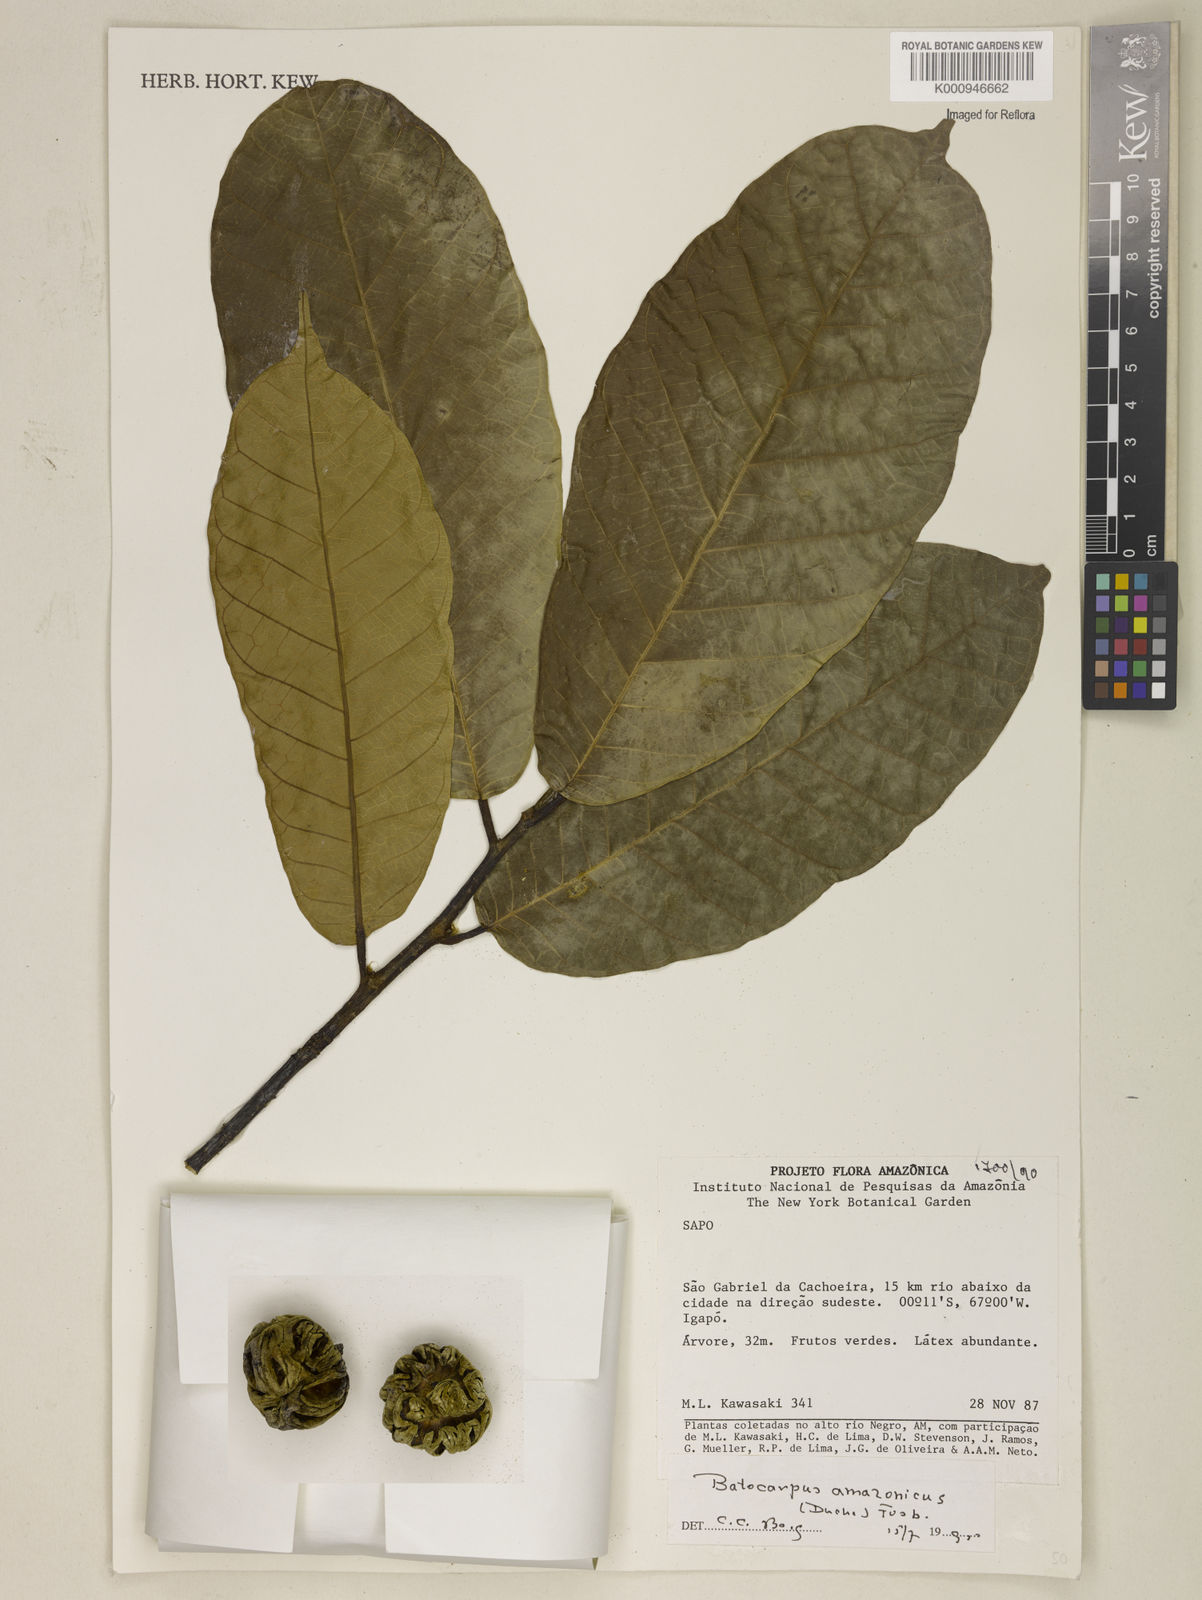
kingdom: Plantae
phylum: Tracheophyta
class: Magnoliopsida
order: Rosales
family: Moraceae
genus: Batocarpus
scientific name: Batocarpus amazonicus
